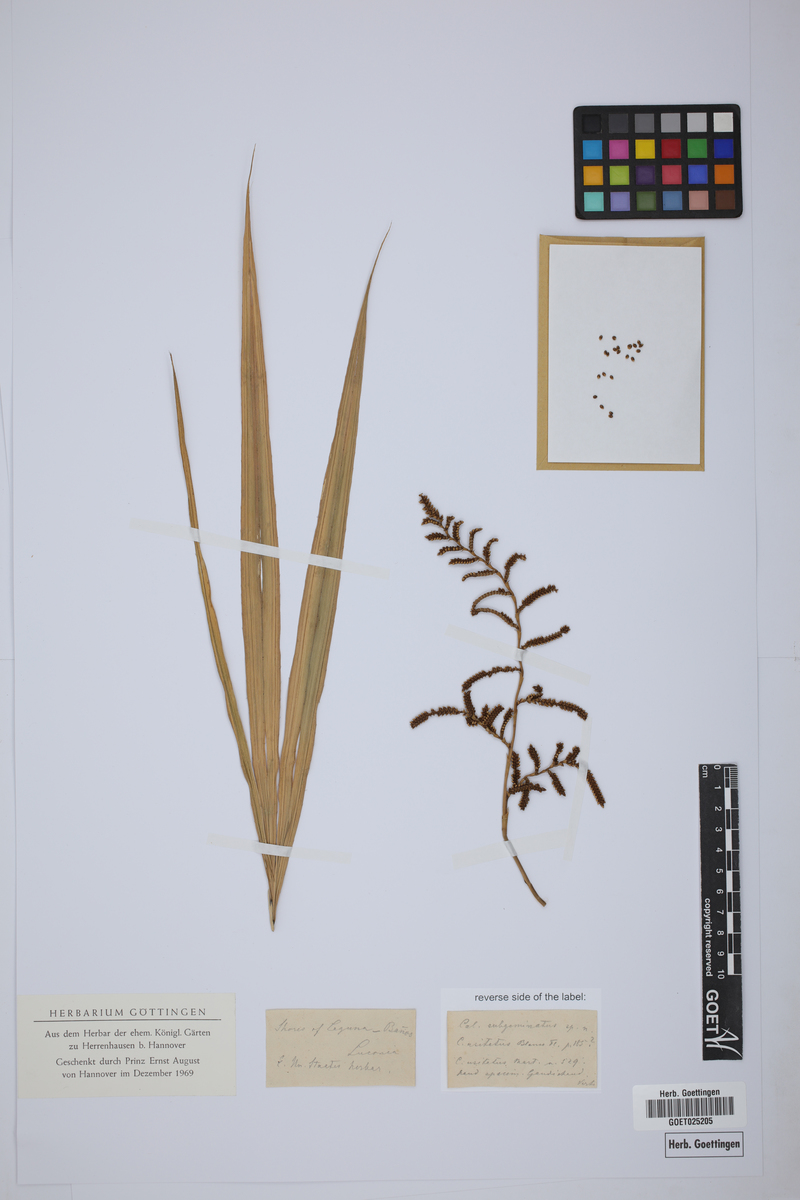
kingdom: Plantae
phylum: Tracheophyta
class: Liliopsida
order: Arecales
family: Arecaceae
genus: Calamus
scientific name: Calamus
